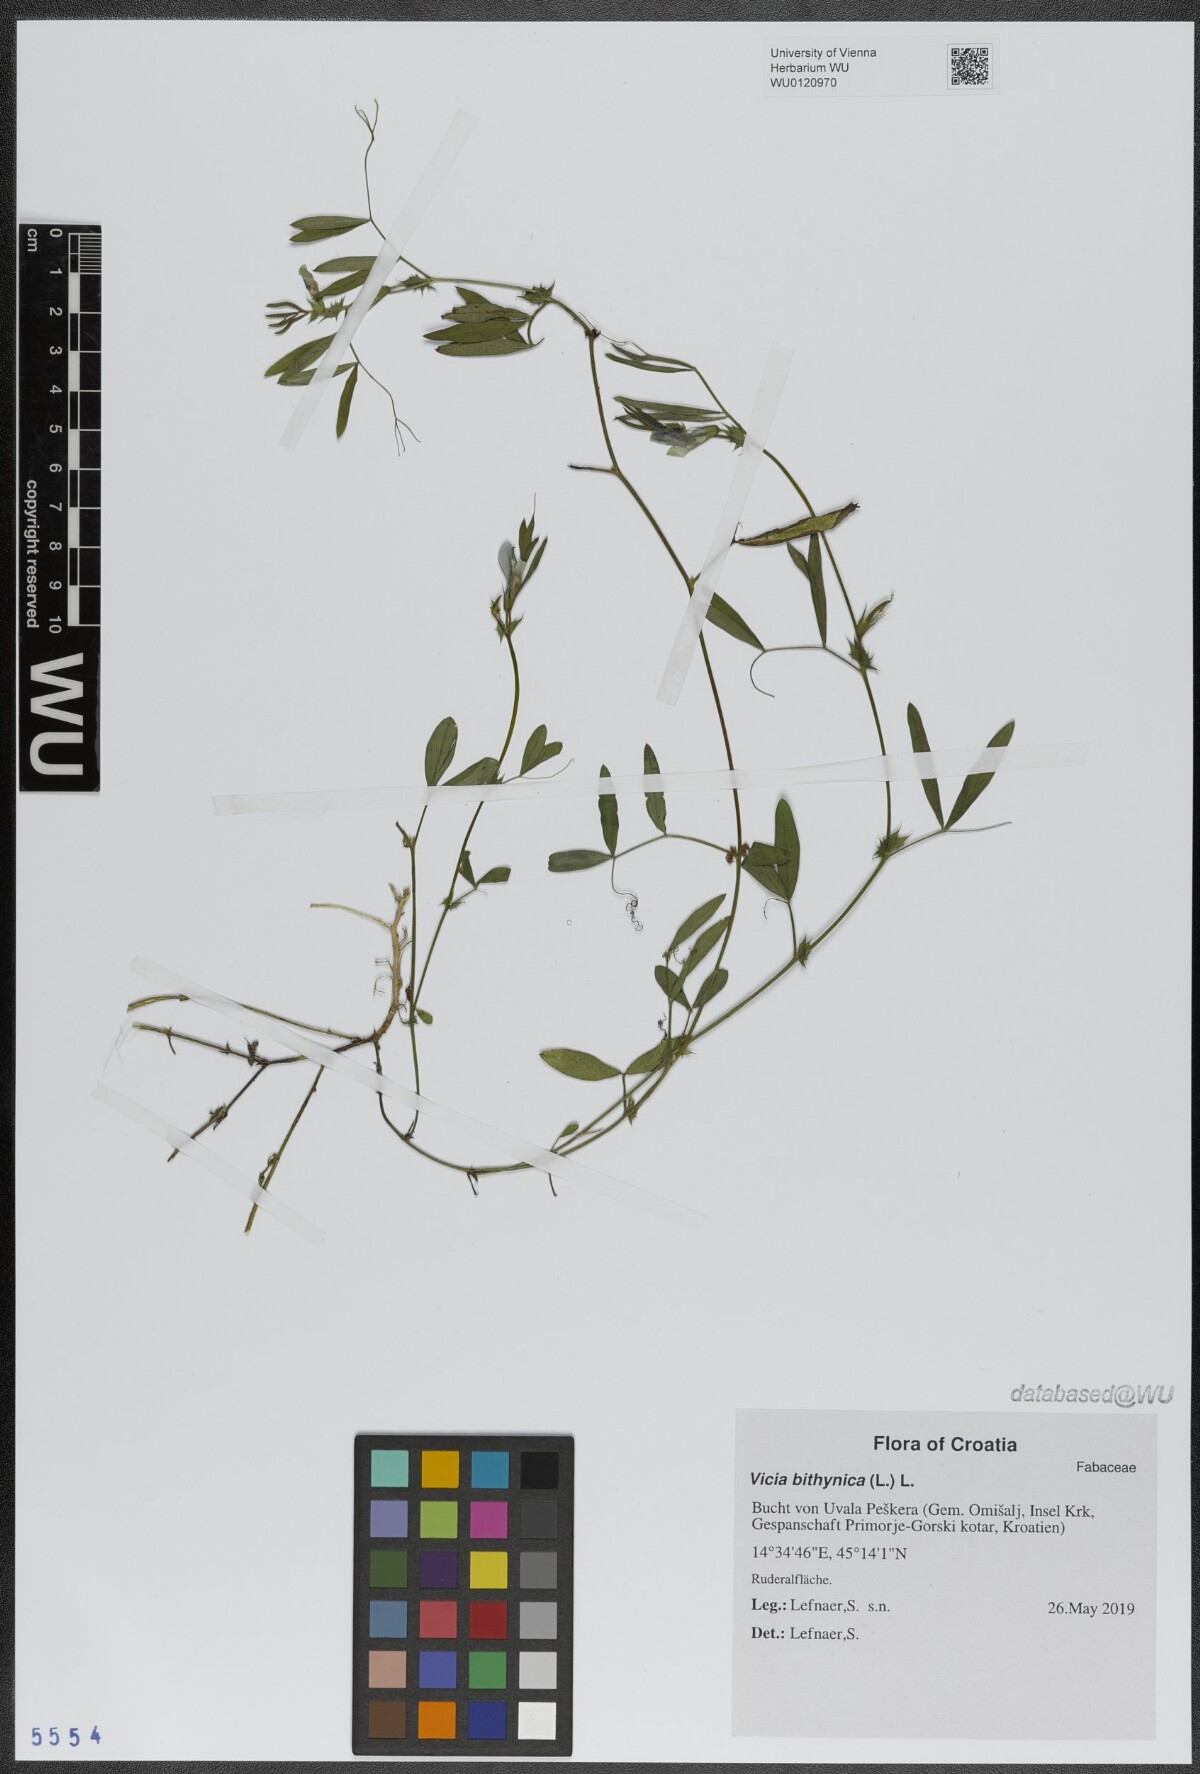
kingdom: Plantae
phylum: Tracheophyta
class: Magnoliopsida
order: Fabales
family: Fabaceae
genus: Vicia
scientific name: Vicia bithynica
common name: Bithynian vetch
